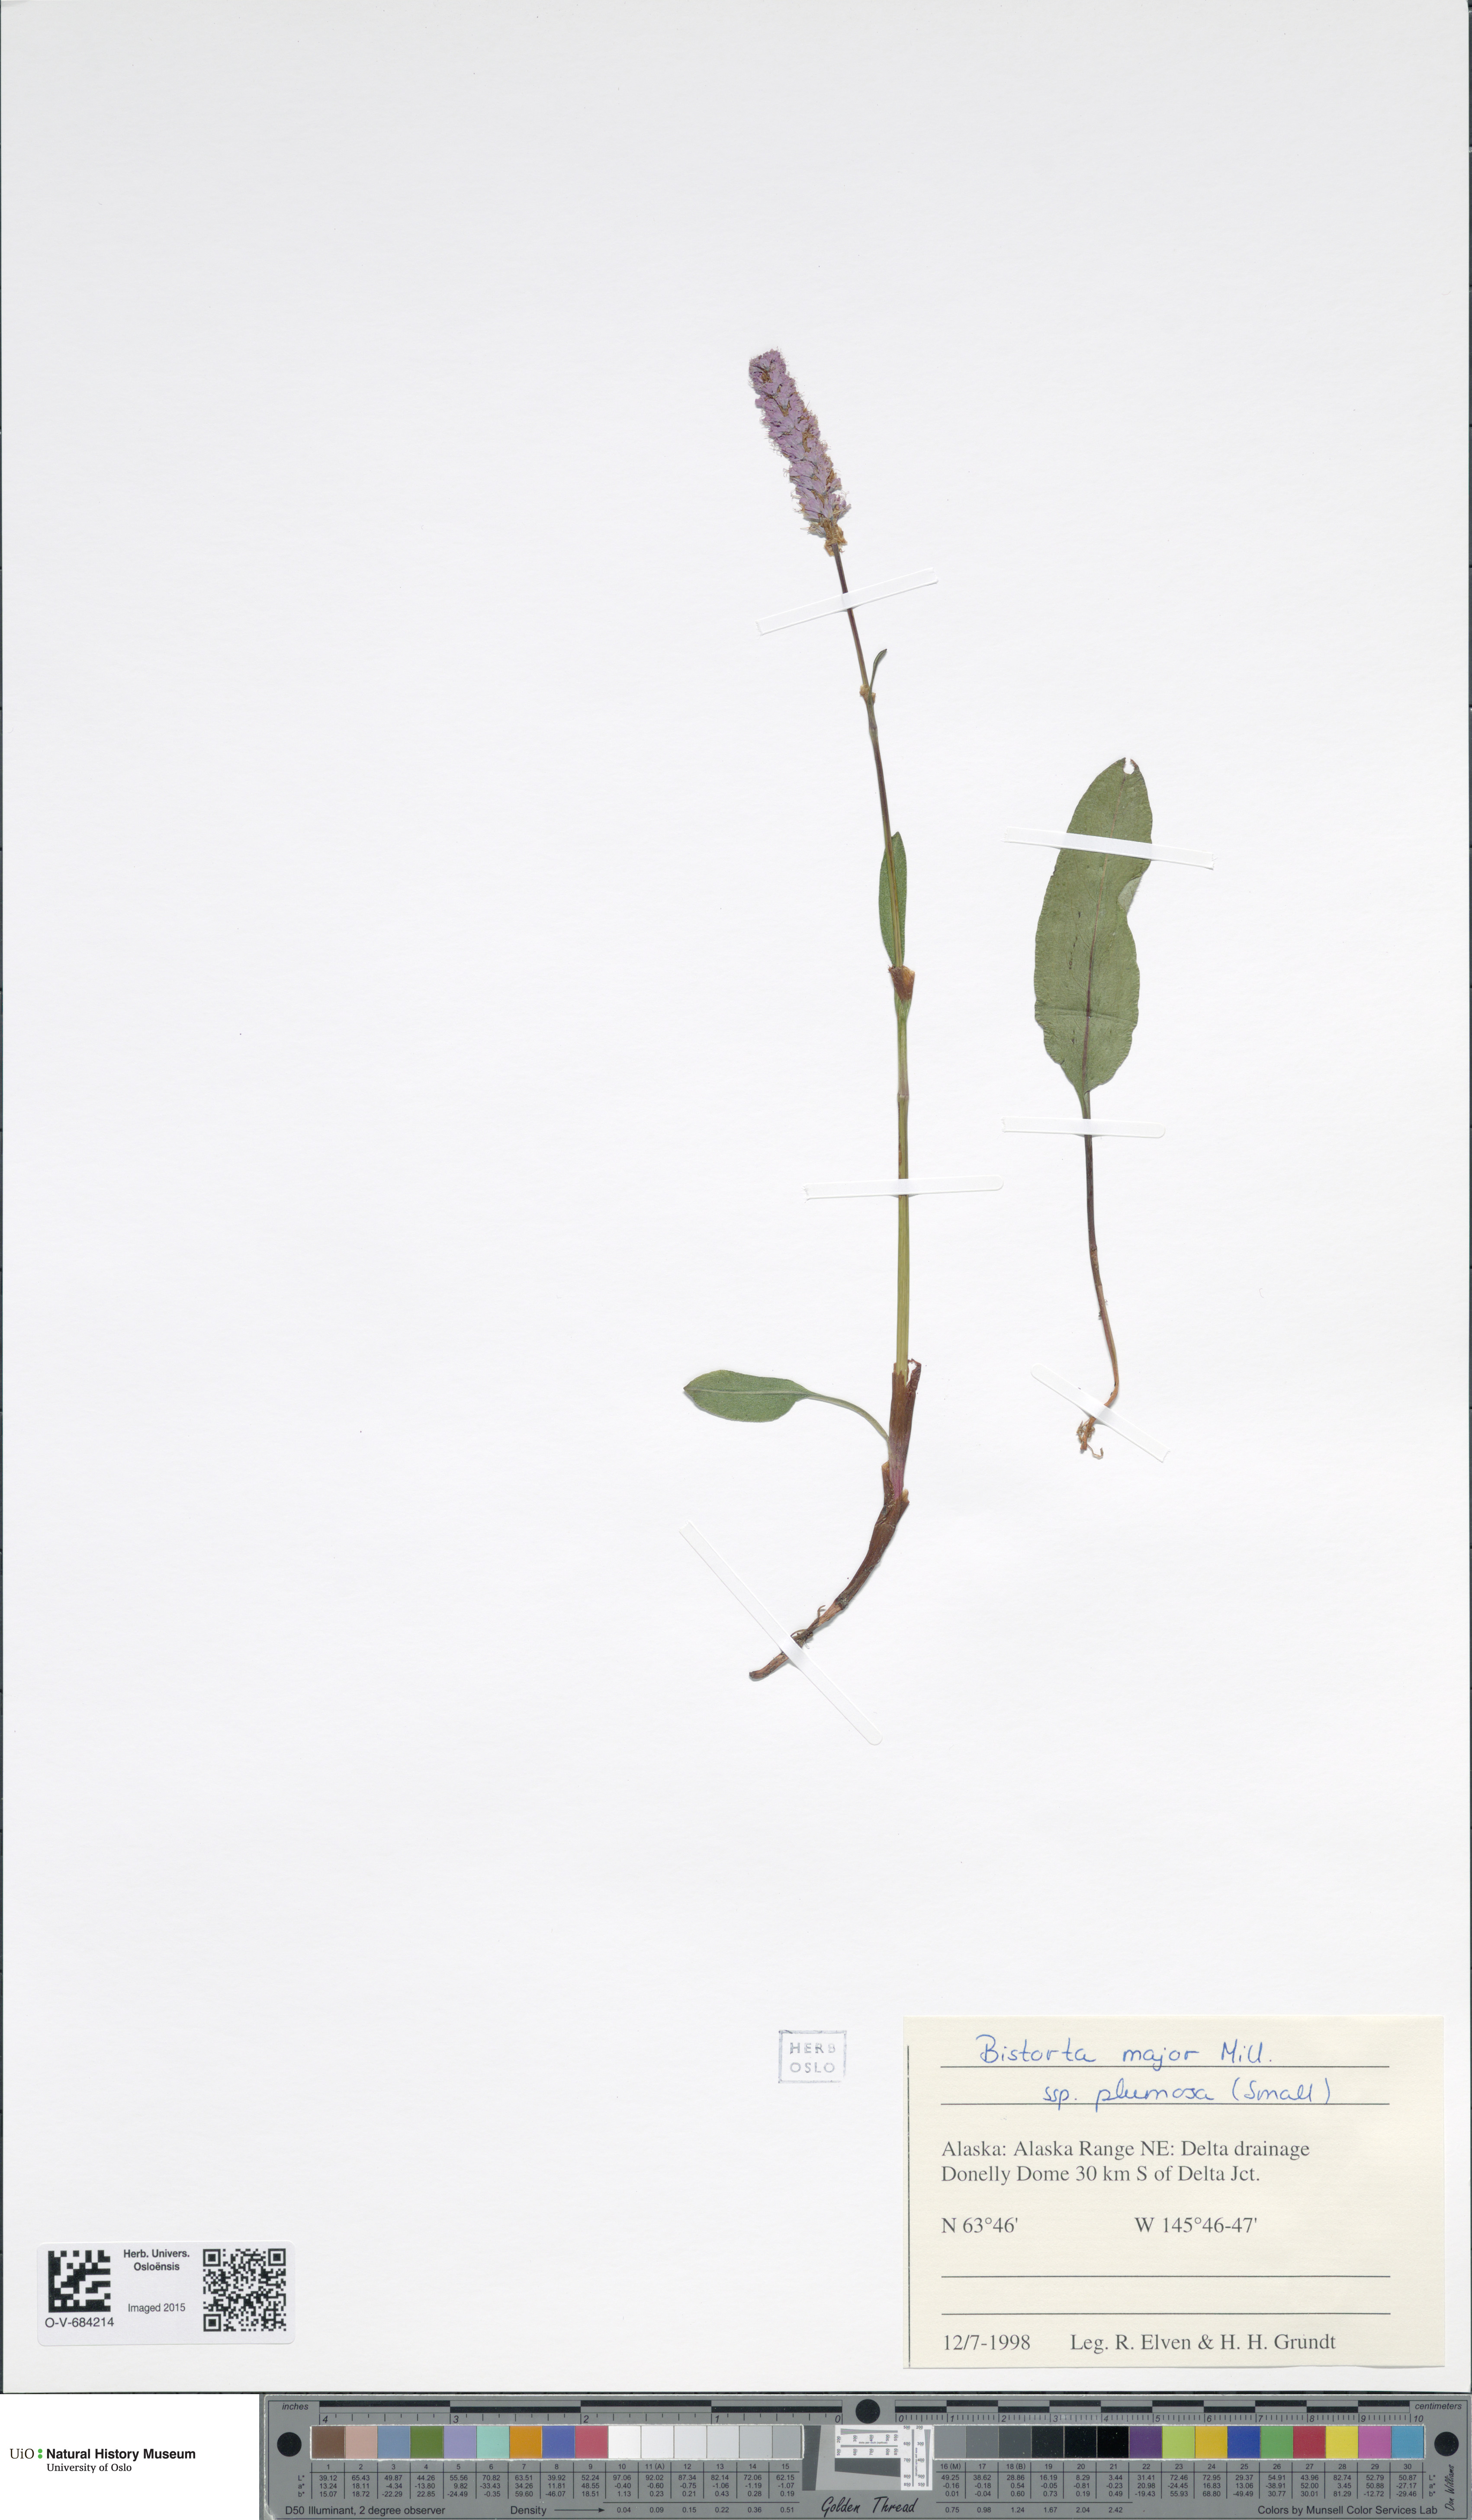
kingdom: Plantae
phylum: Tracheophyta
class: Magnoliopsida
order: Caryophyllales
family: Polygonaceae
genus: Bistorta
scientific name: Bistorta plumosa
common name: Meadow bistort
